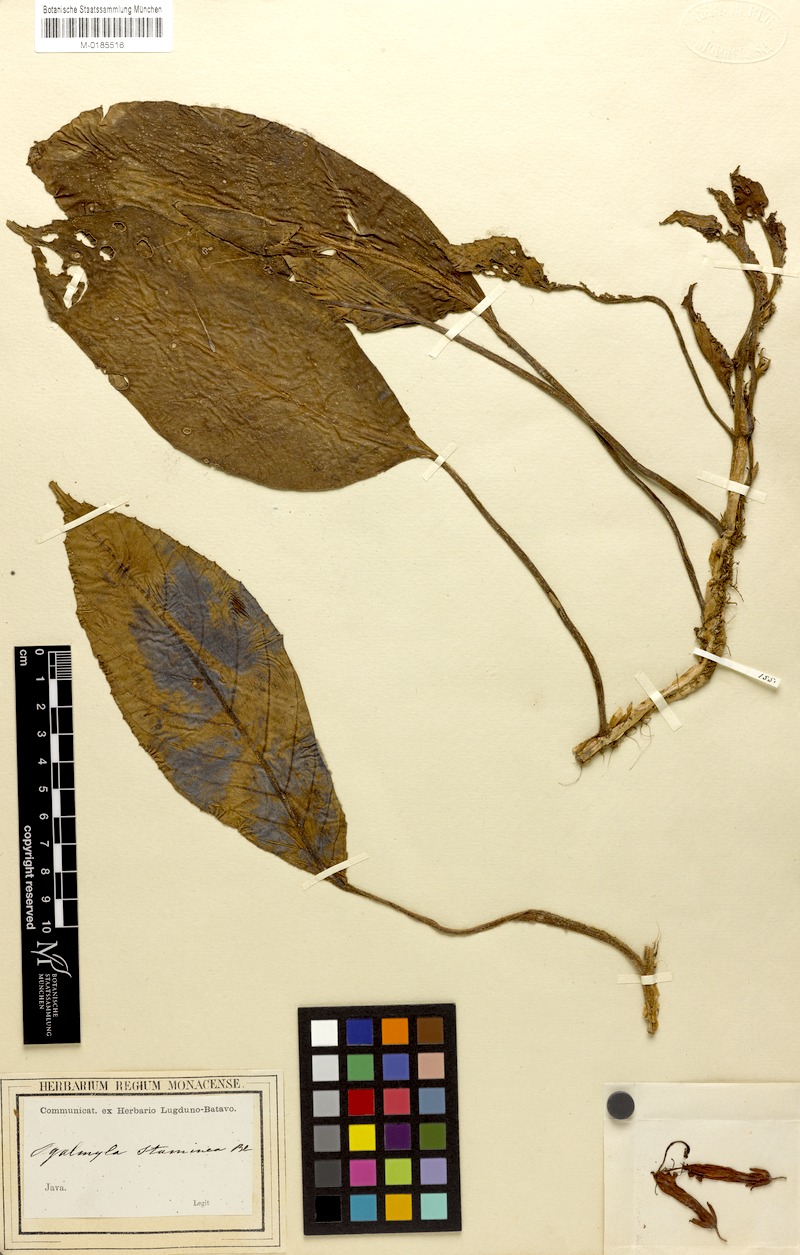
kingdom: Plantae
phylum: Tracheophyta
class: Magnoliopsida
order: Lamiales
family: Gesneriaceae
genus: Agalmyla
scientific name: Agalmyla parasitica
